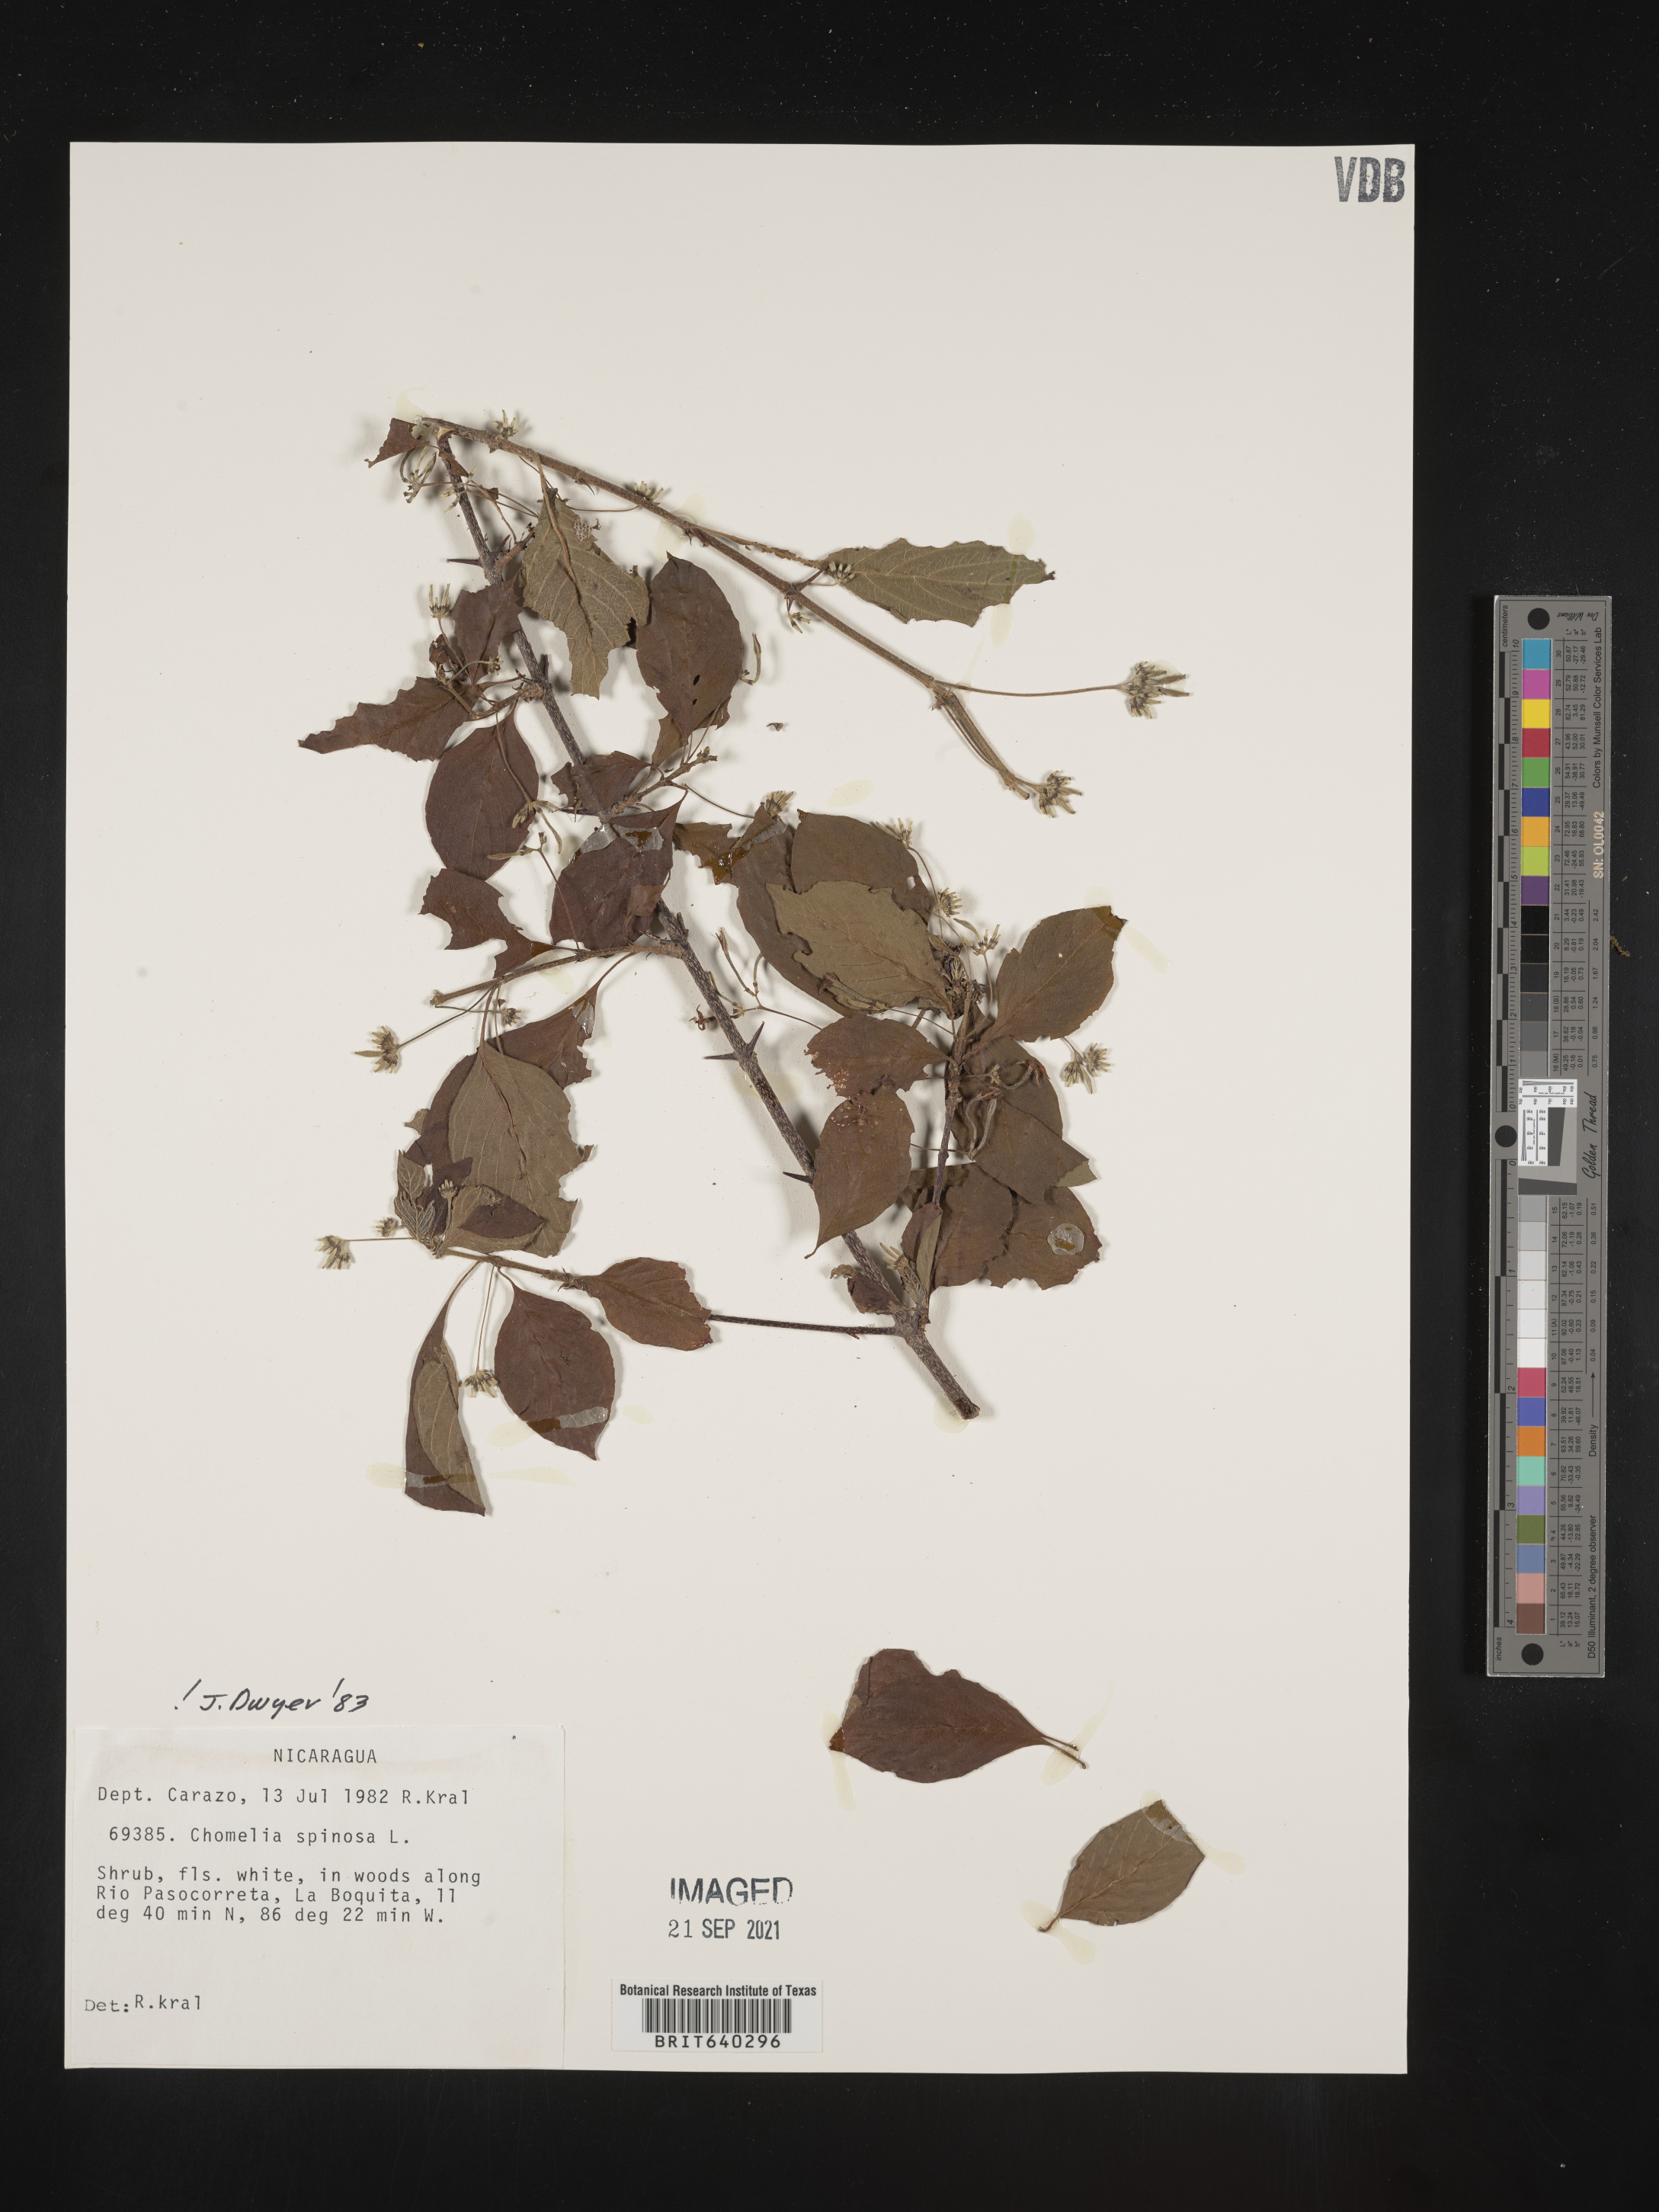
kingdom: Plantae
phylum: Tracheophyta
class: Magnoliopsida
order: Gentianales
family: Rubiaceae
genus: Chomelia
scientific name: Chomelia
